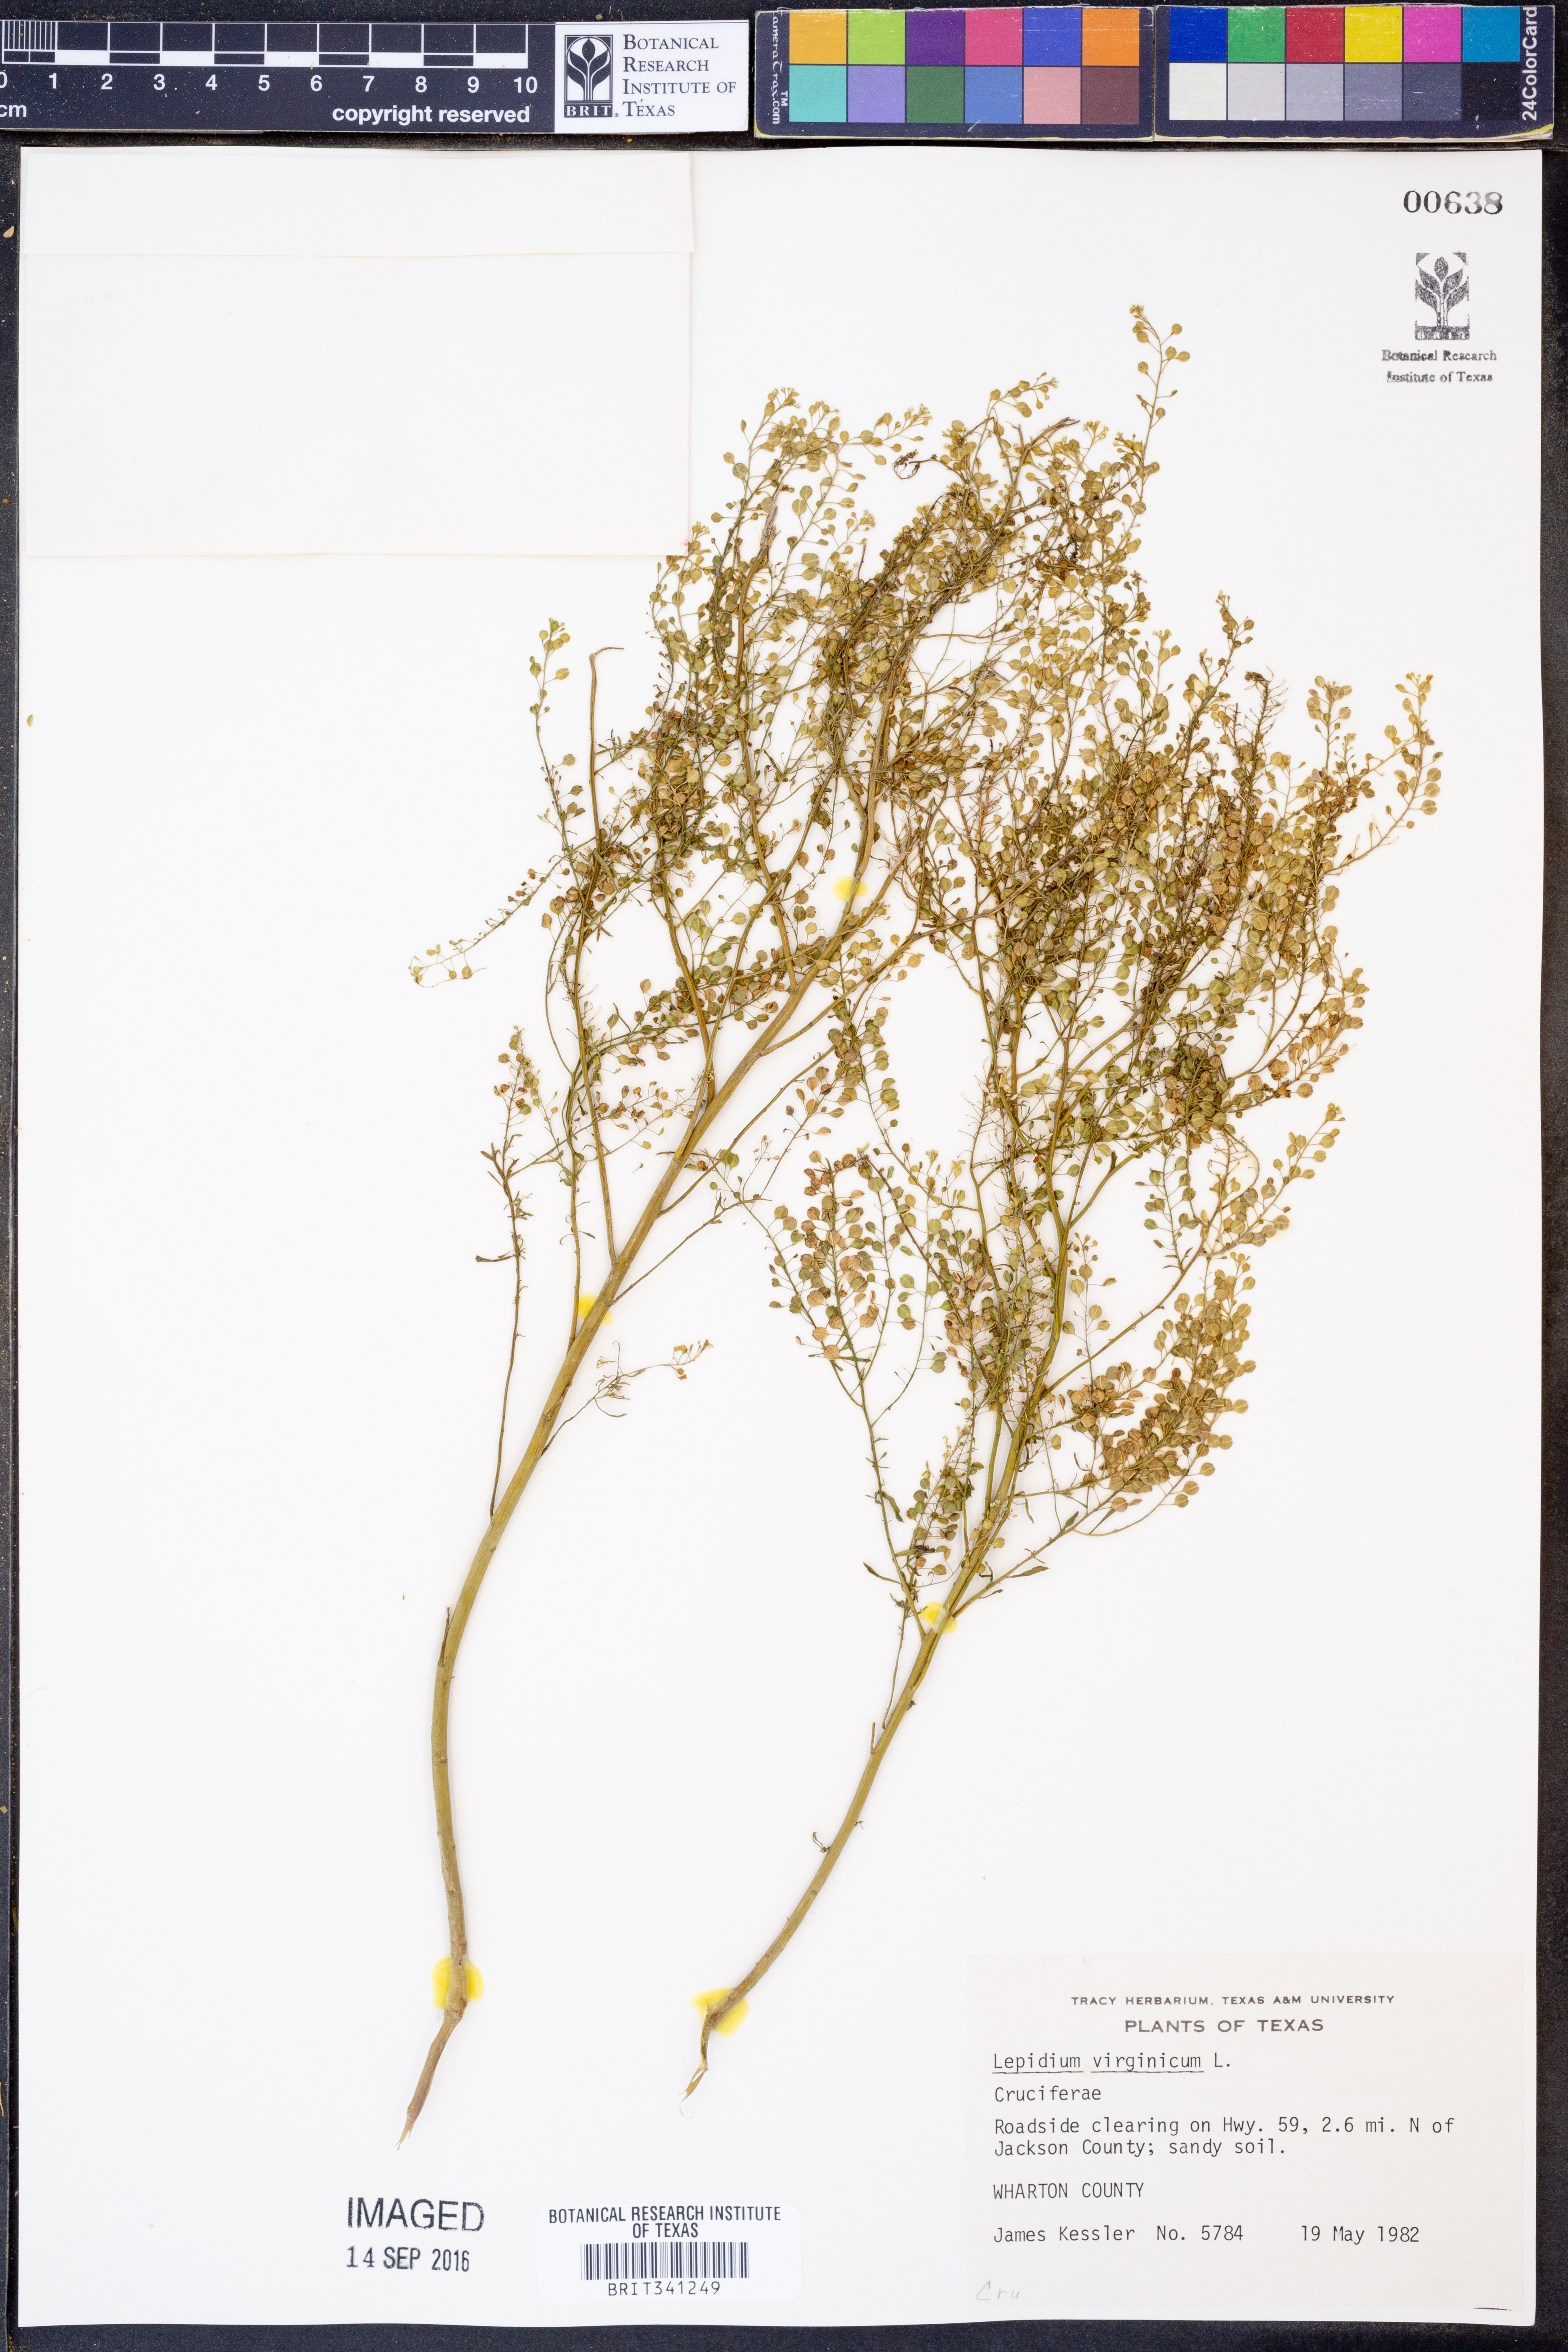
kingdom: Plantae
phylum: Tracheophyta
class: Magnoliopsida
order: Brassicales
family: Brassicaceae
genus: Lepidium
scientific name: Lepidium virginicum
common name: Least pepperwort
